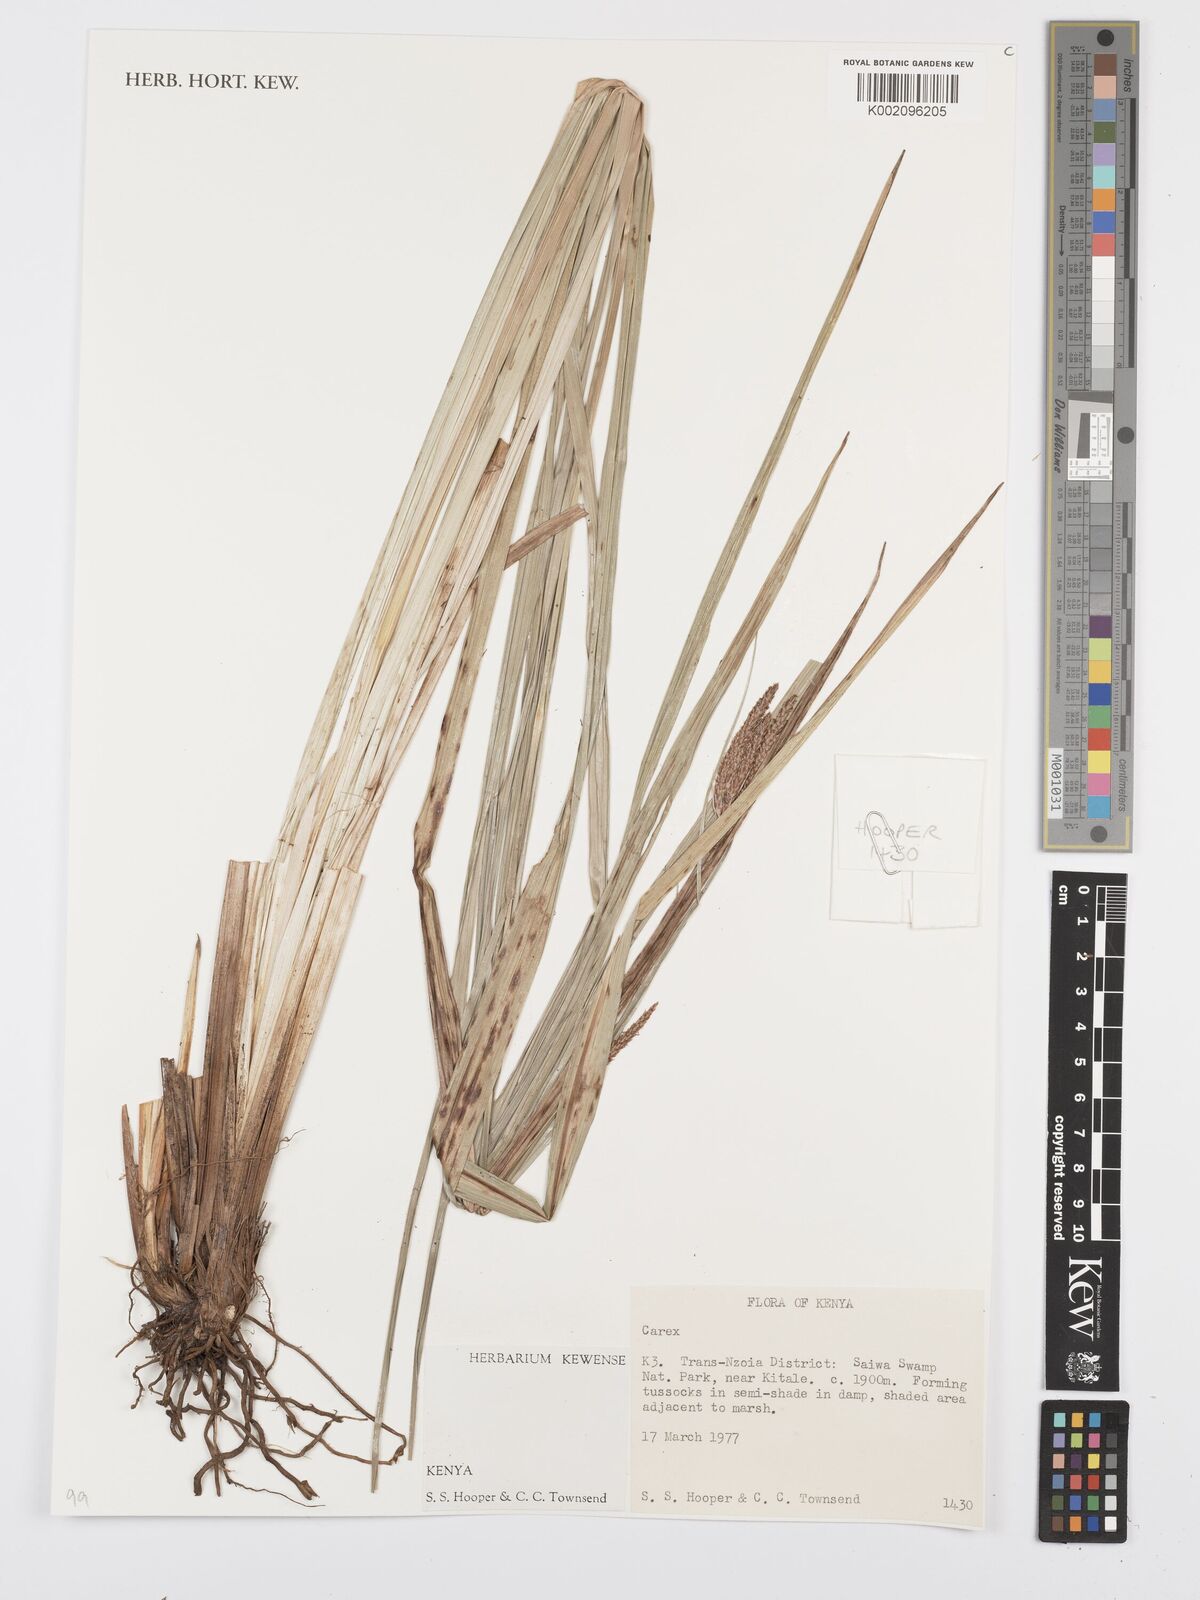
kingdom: Plantae
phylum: Tracheophyta
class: Liliopsida
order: Poales
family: Cyperaceae
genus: Carex
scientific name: Carex
